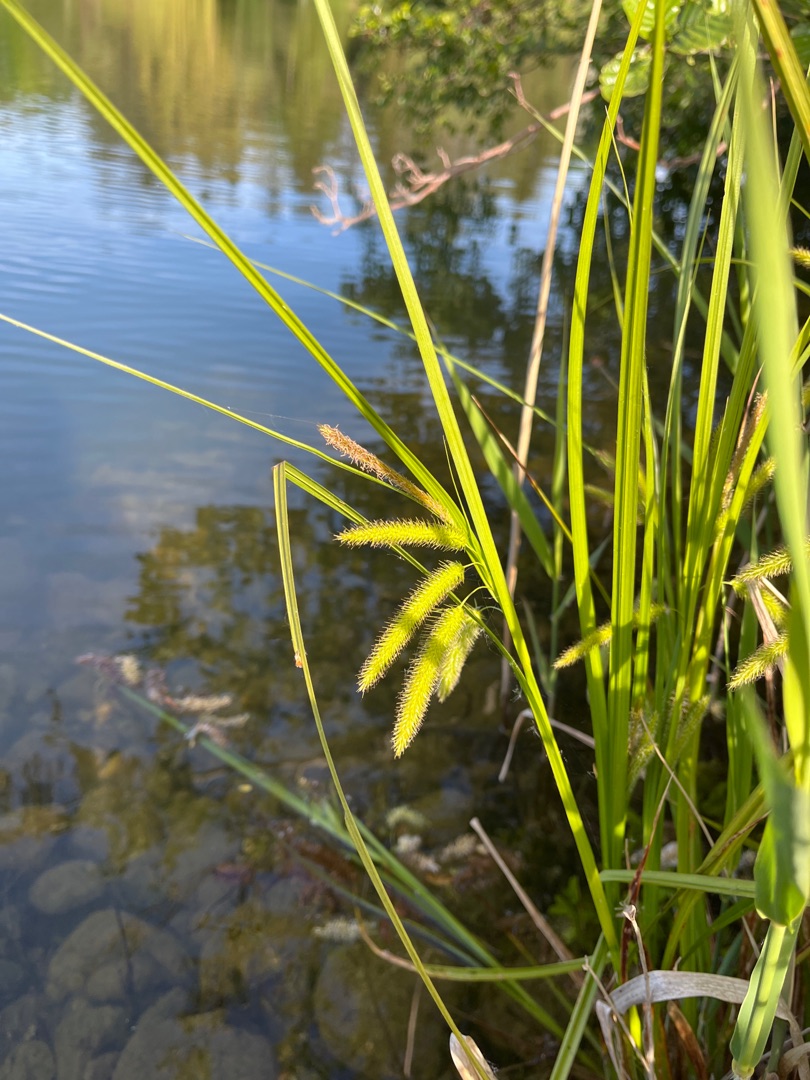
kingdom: Plantae
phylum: Tracheophyta
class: Liliopsida
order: Poales
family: Cyperaceae
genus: Carex
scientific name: Carex pseudocyperus
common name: Knippe-star
